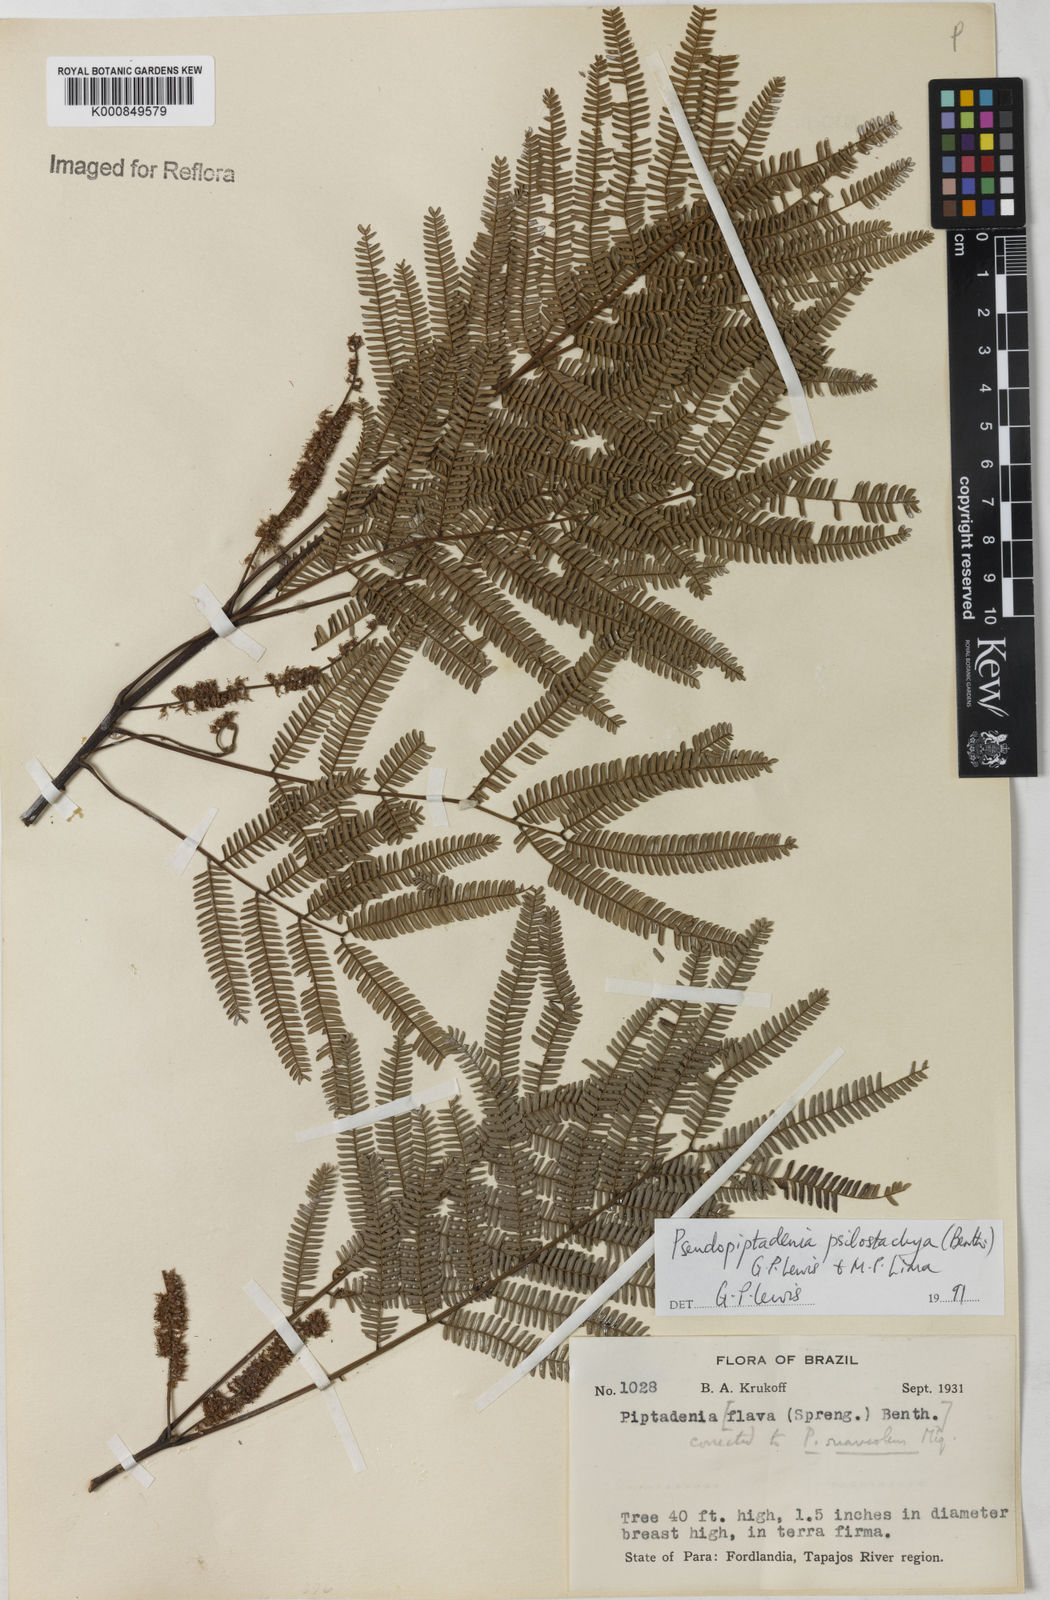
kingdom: Plantae
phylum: Tracheophyta
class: Magnoliopsida
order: Fabales
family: Fabaceae
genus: Pseudopiptadenia
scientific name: Pseudopiptadenia psilostachya
